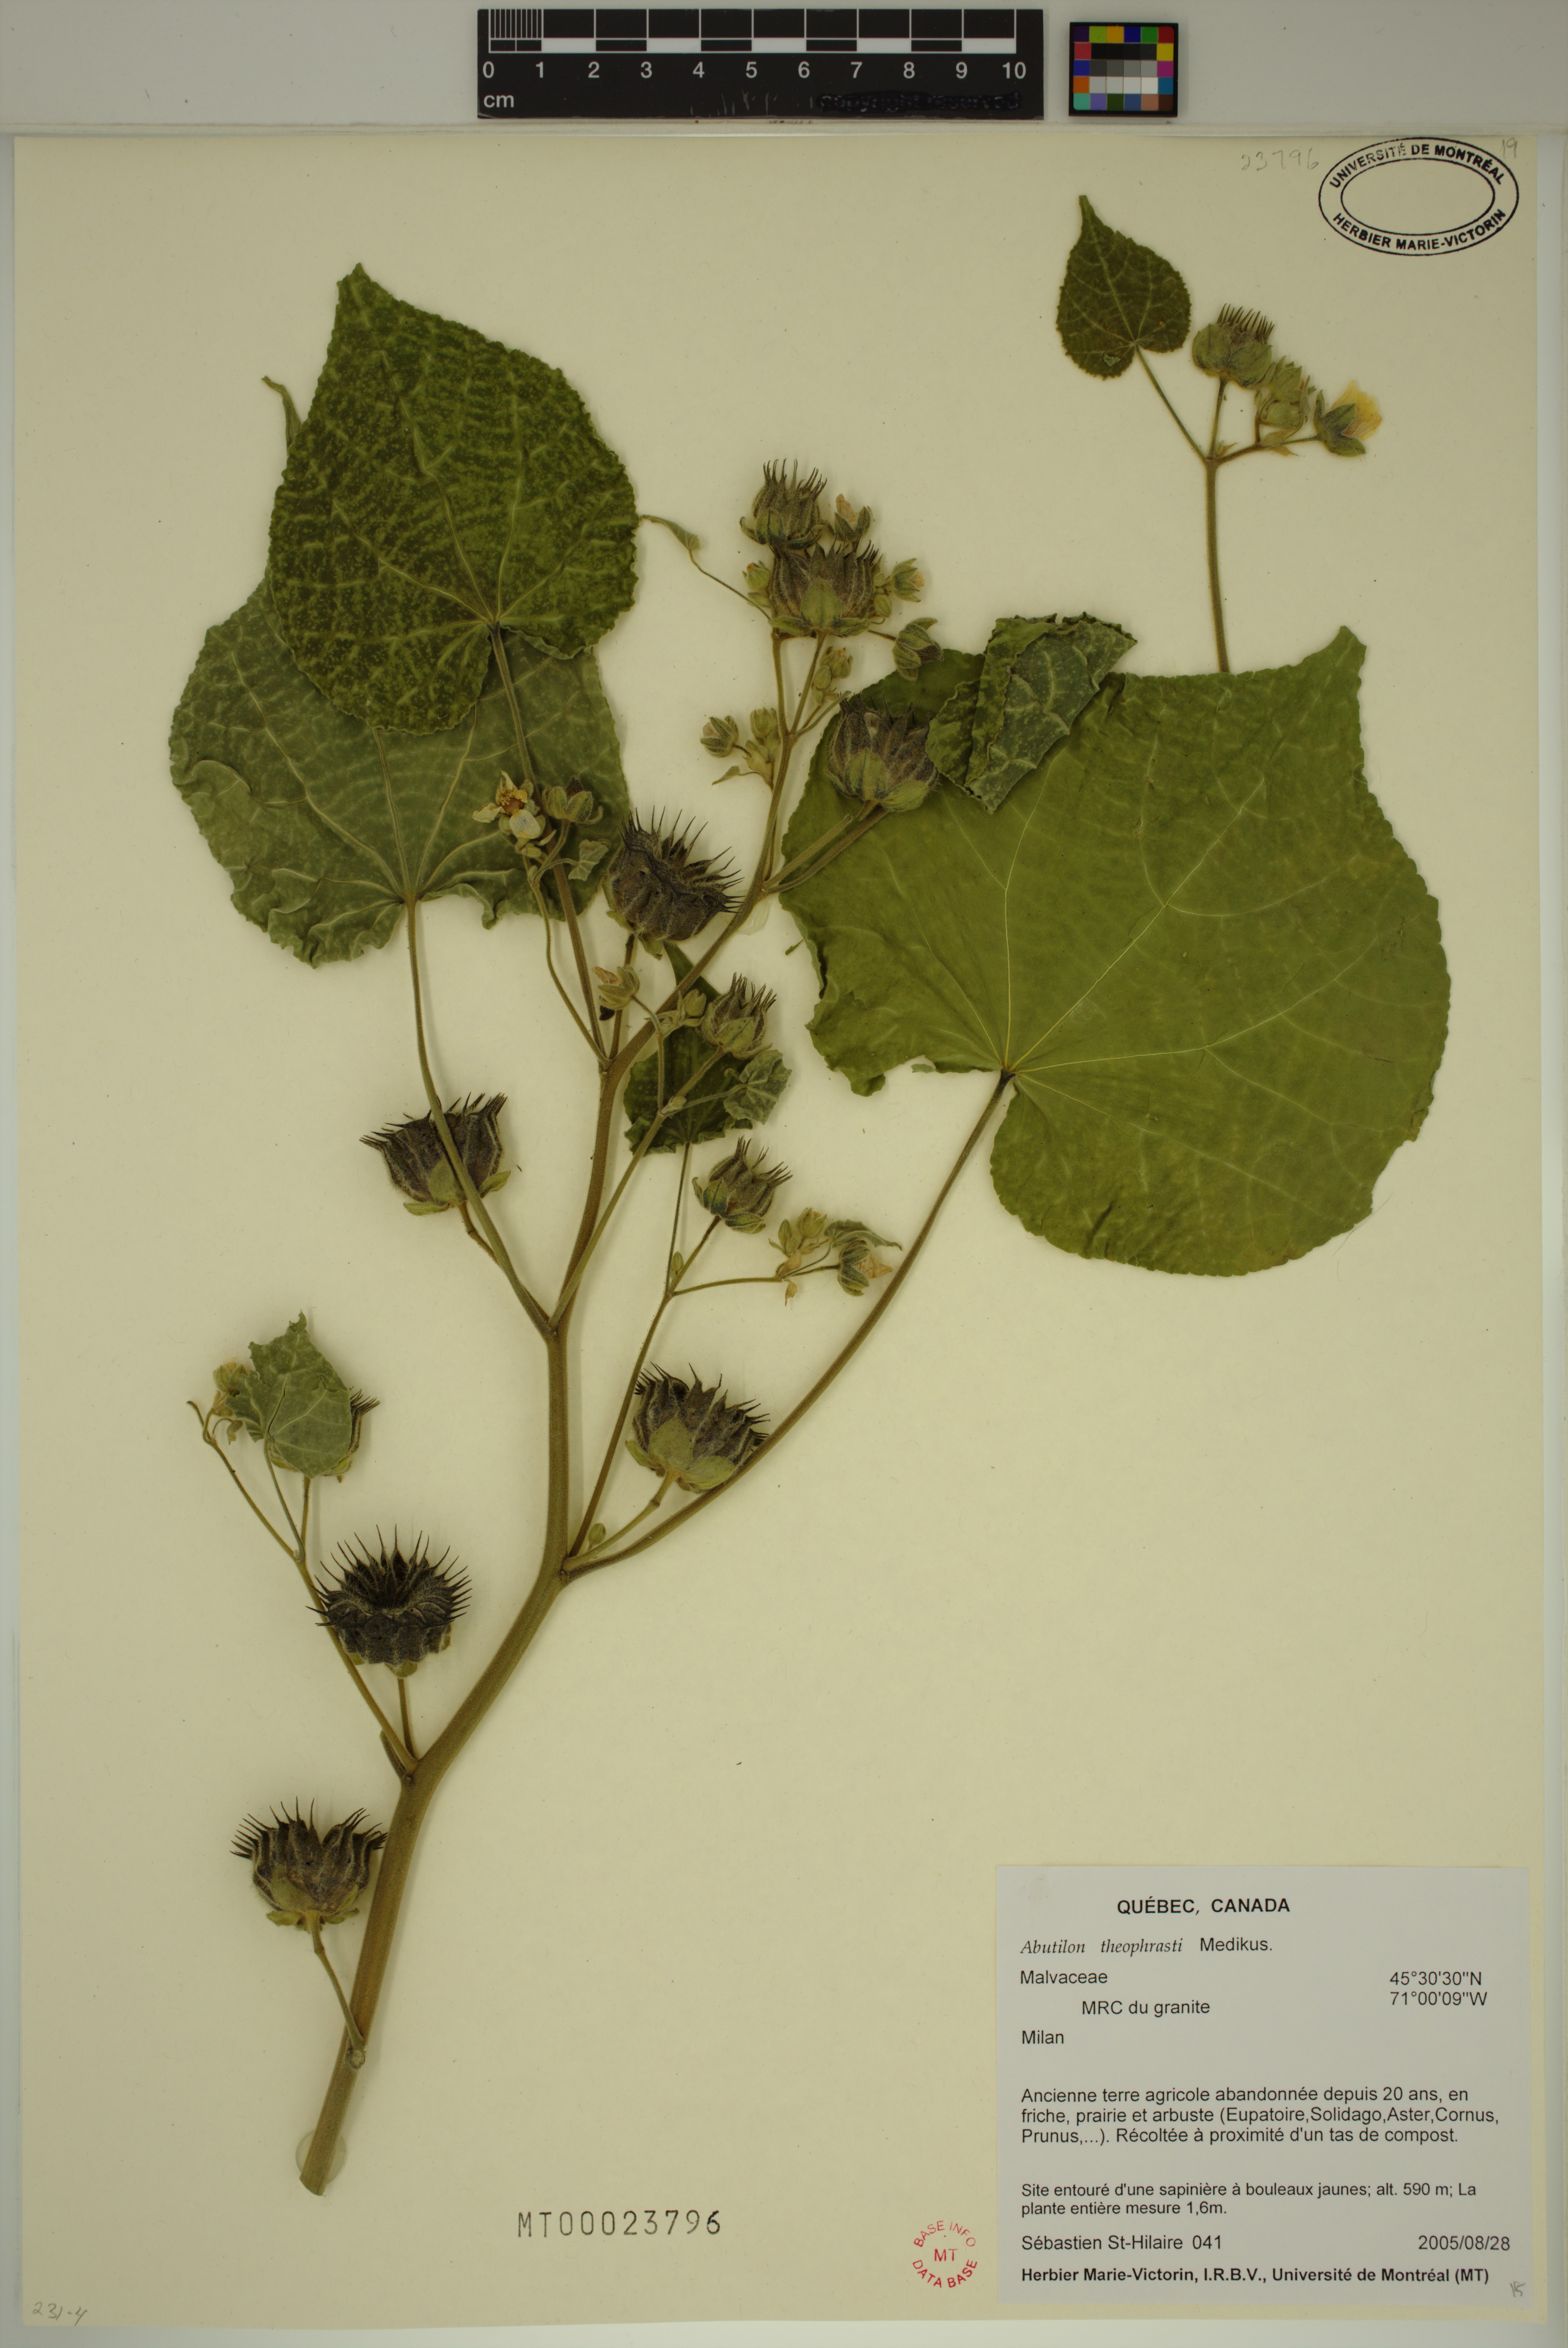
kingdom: Plantae
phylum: Tracheophyta
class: Magnoliopsida
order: Malvales
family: Malvaceae
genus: Abutilon
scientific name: Abutilon theophrasti
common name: Velvetleaf
